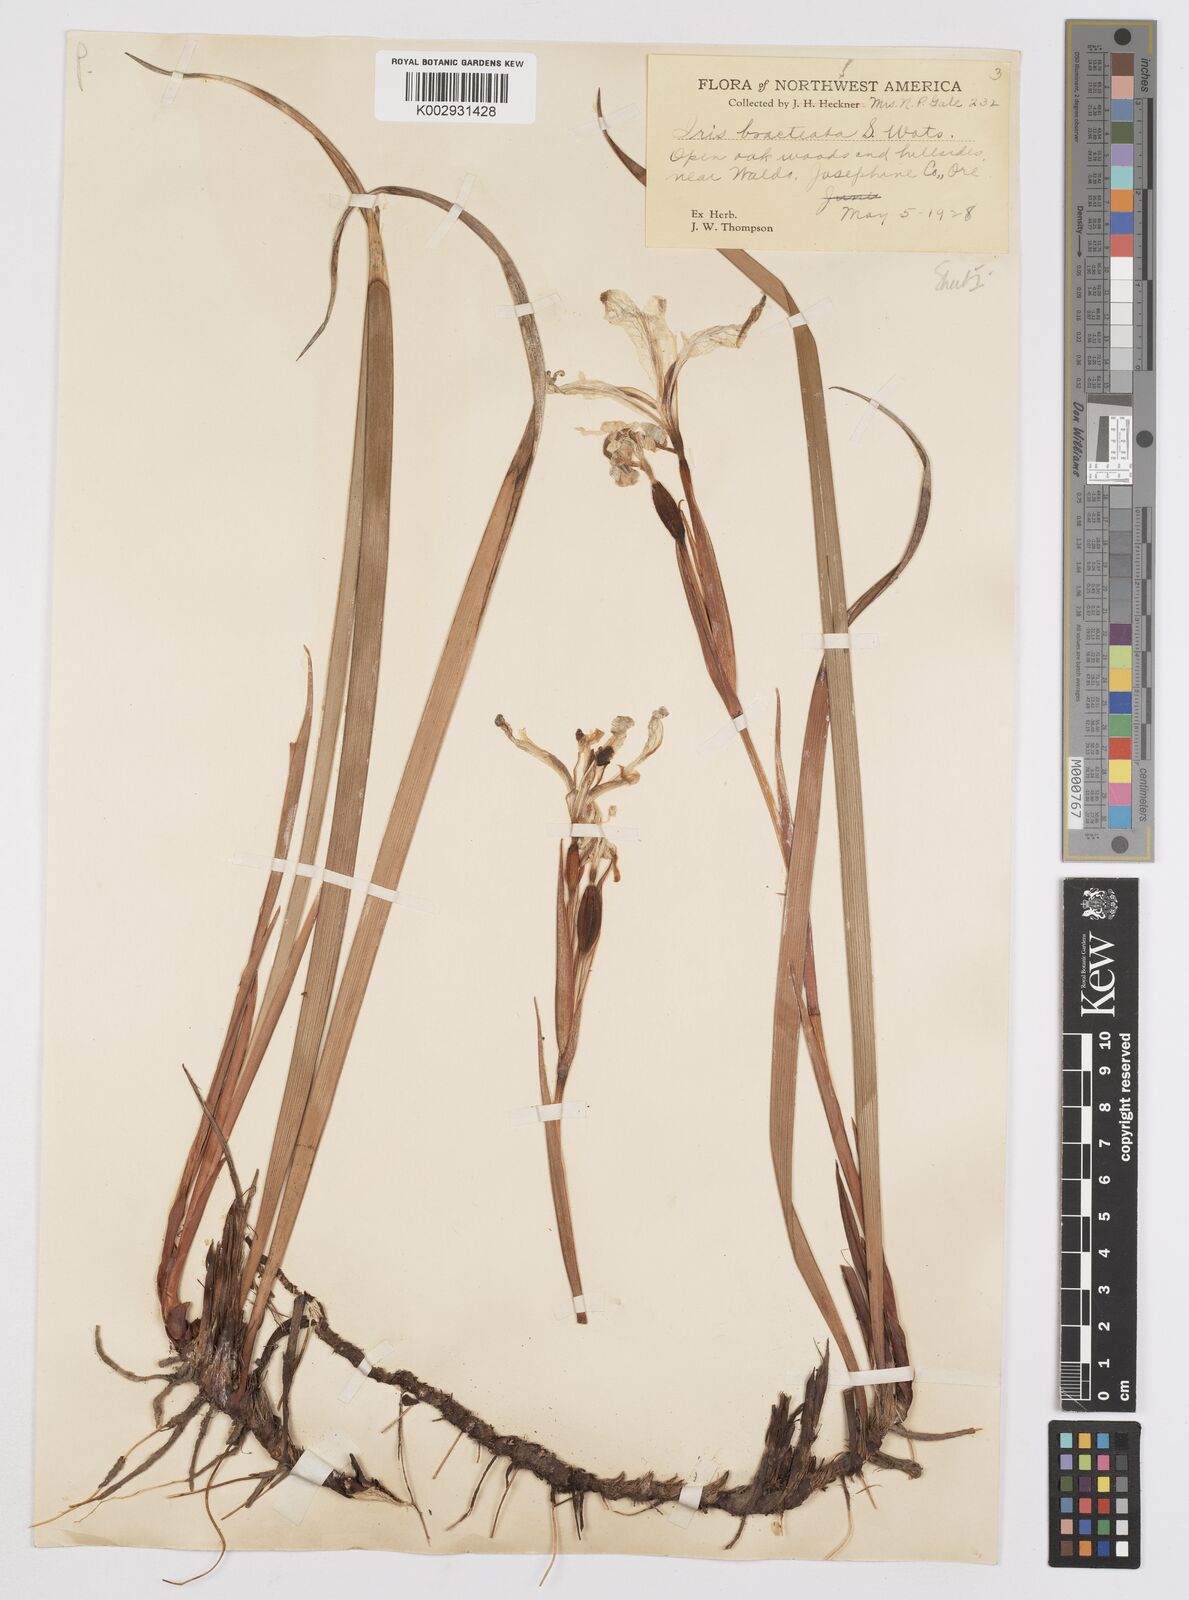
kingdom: Plantae
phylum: Tracheophyta
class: Liliopsida
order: Asparagales
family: Iridaceae
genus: Iris
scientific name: Iris bracteata
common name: Siskiyou iris
